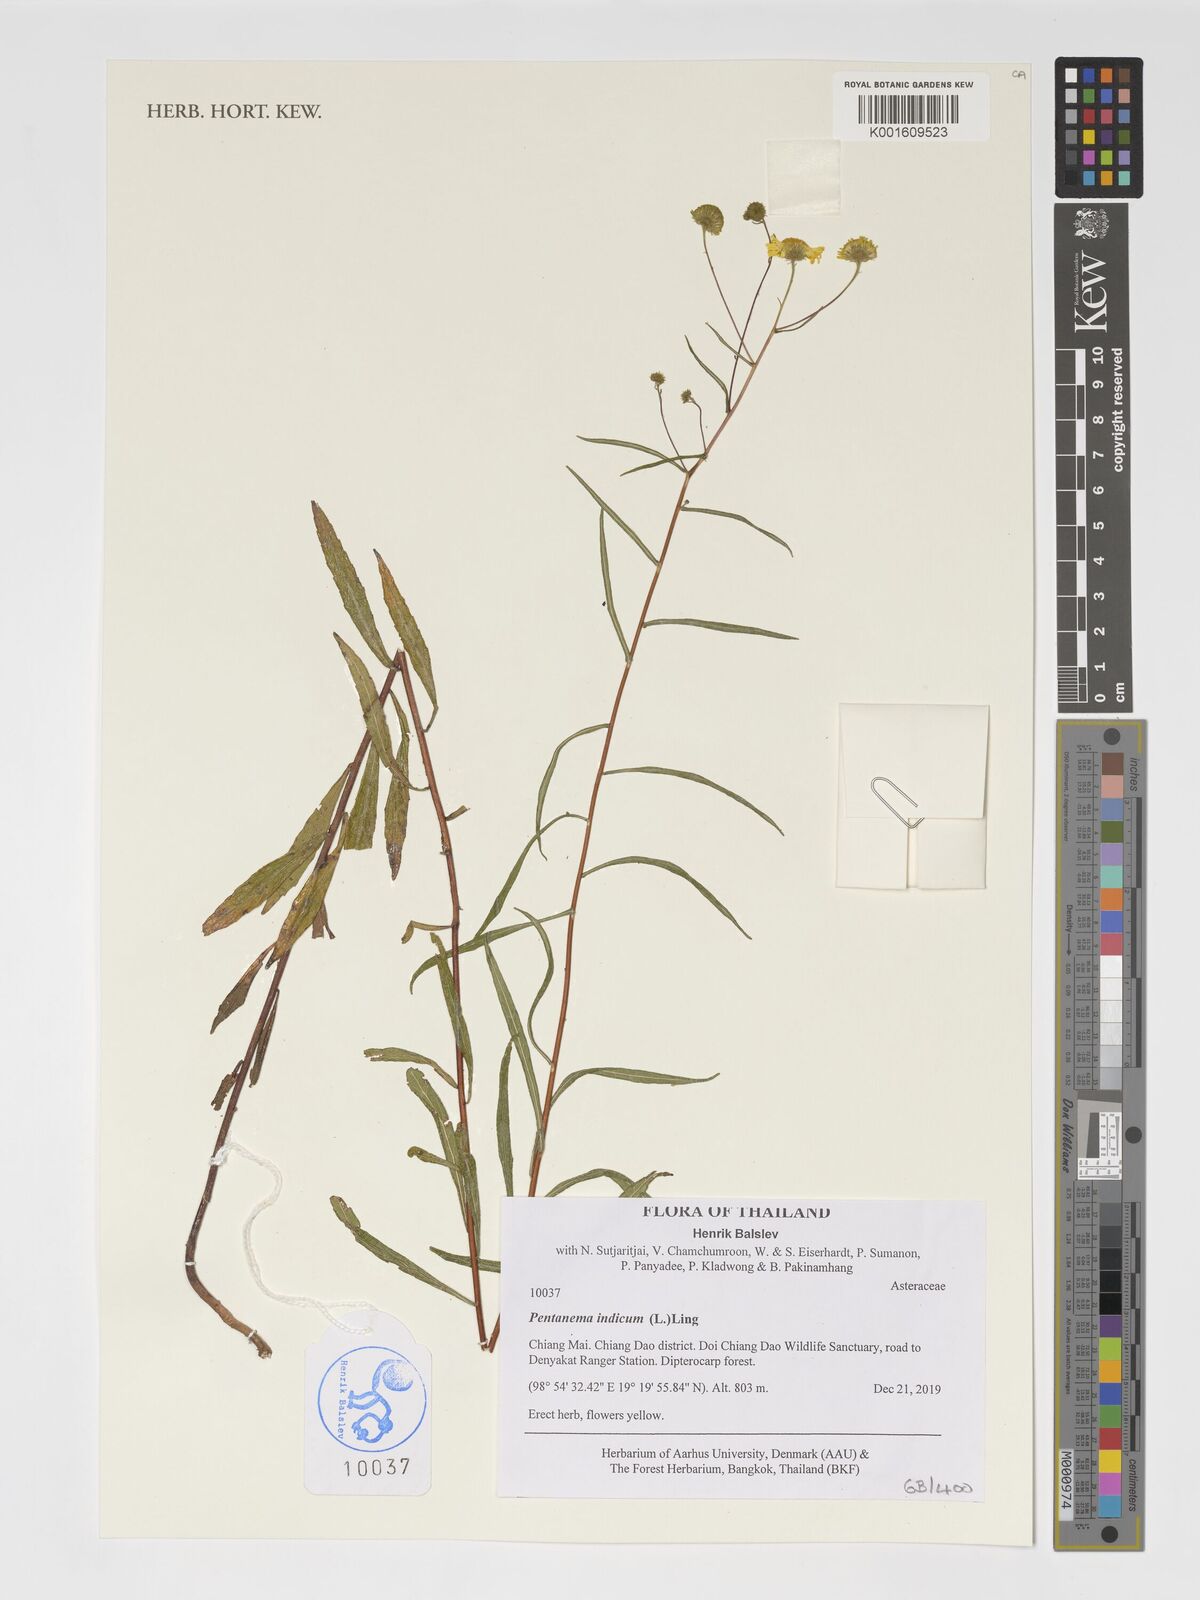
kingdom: Plantae
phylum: Tracheophyta
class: Magnoliopsida
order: Asterales
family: Asteraceae
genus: Vicoa
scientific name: Vicoa indica
